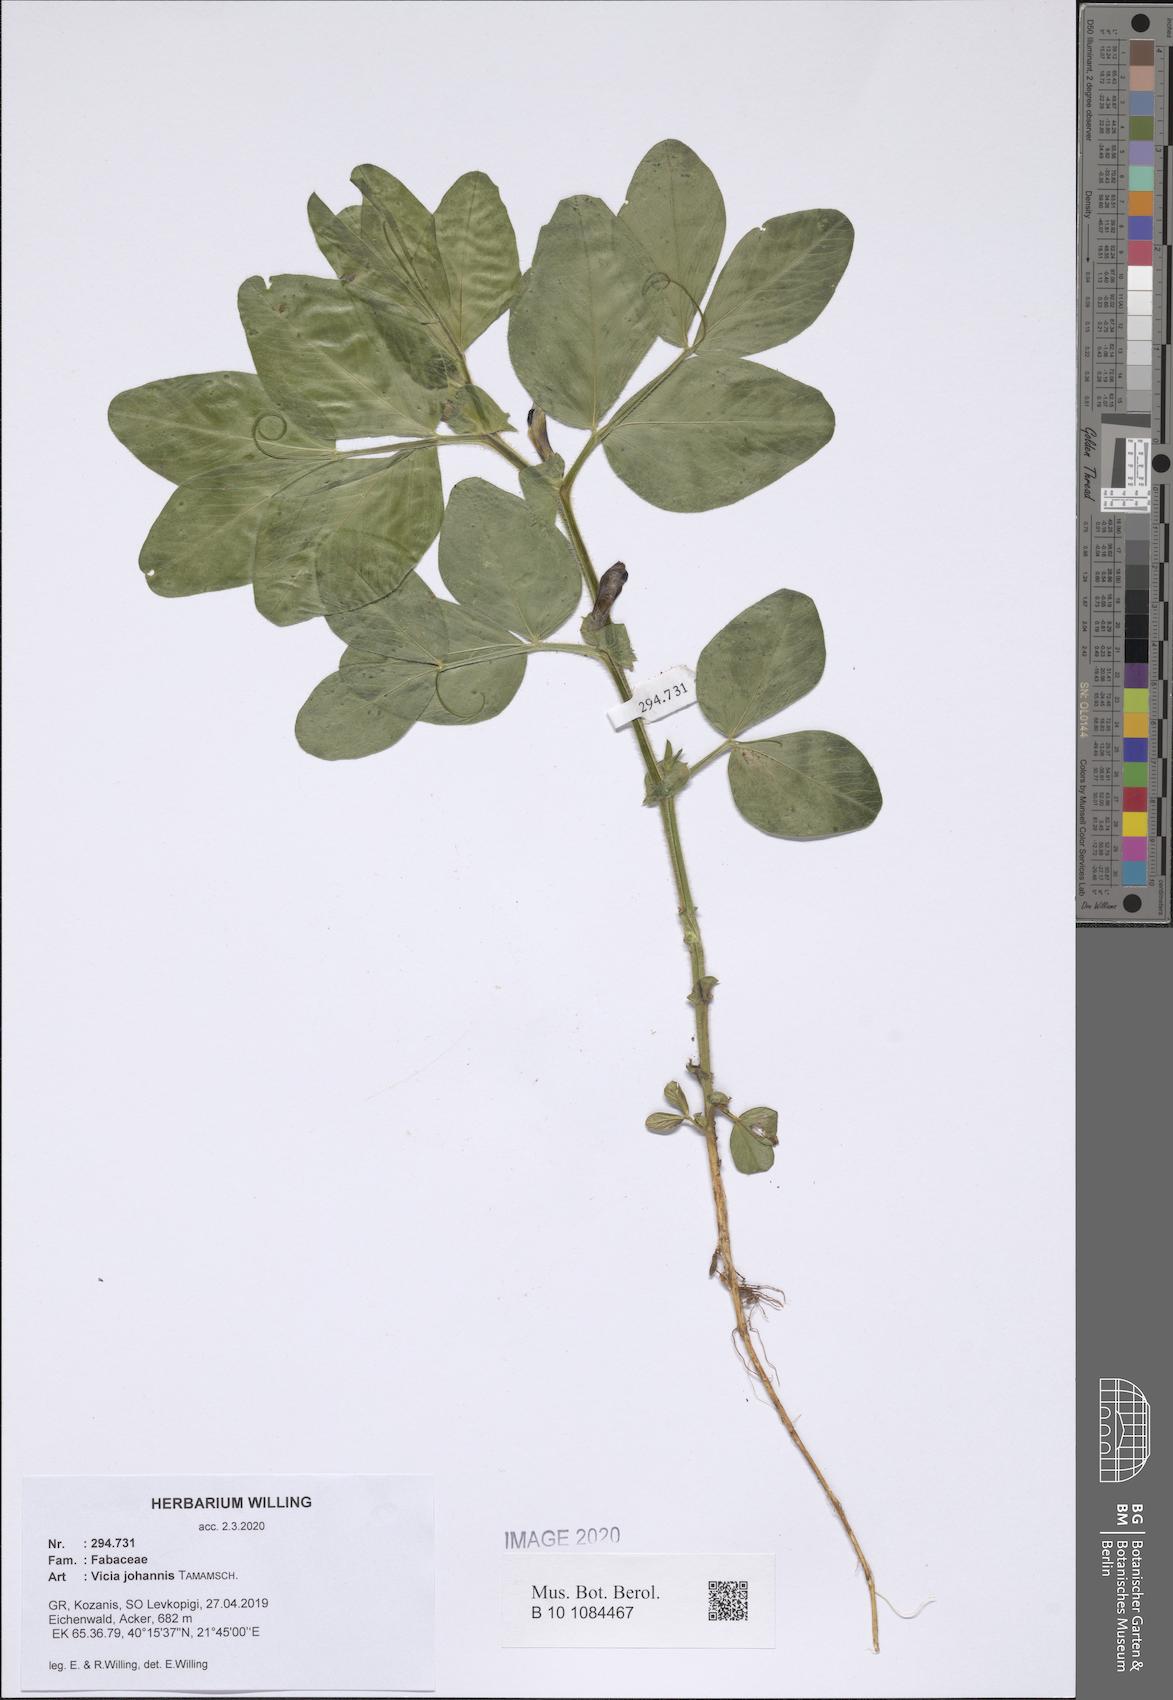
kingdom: Plantae
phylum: Tracheophyta
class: Magnoliopsida
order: Fabales
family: Fabaceae
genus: Vicia
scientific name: Vicia johannis
